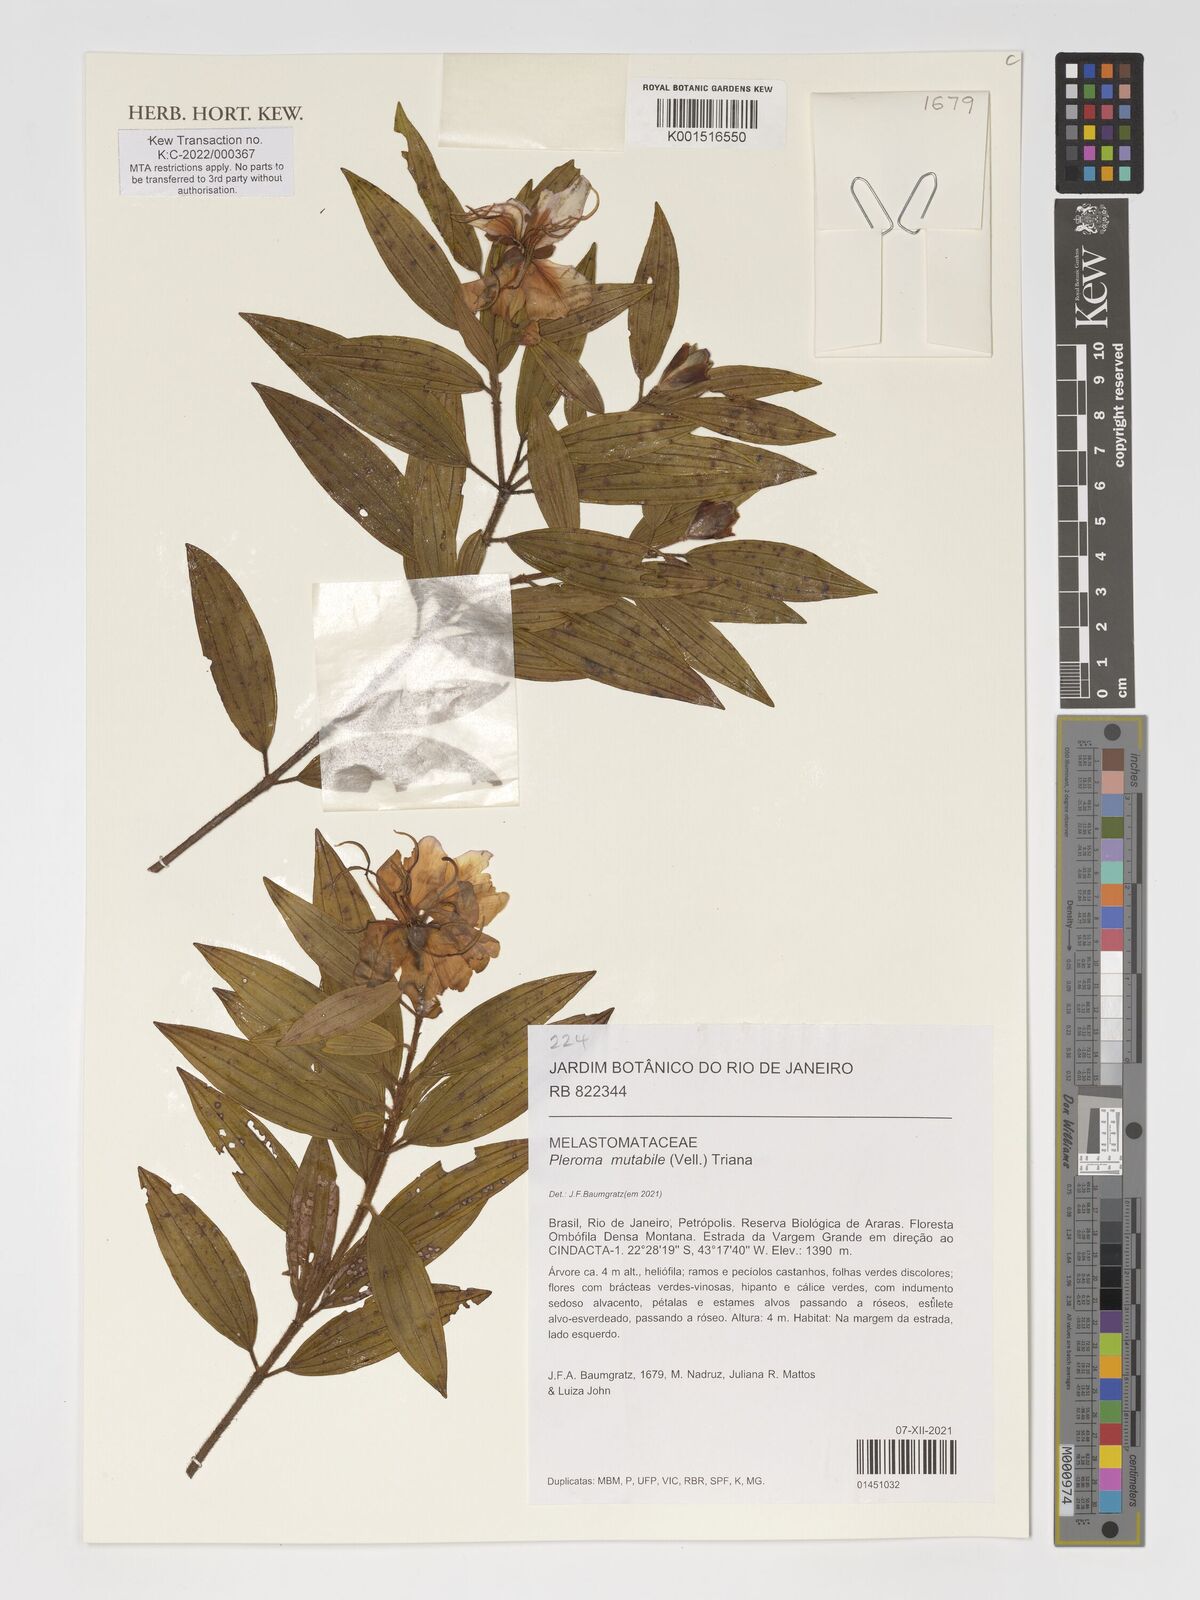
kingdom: Plantae
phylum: Tracheophyta
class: Magnoliopsida
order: Myrtales
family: Melastomataceae
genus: Pleroma
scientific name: Pleroma mutabile
